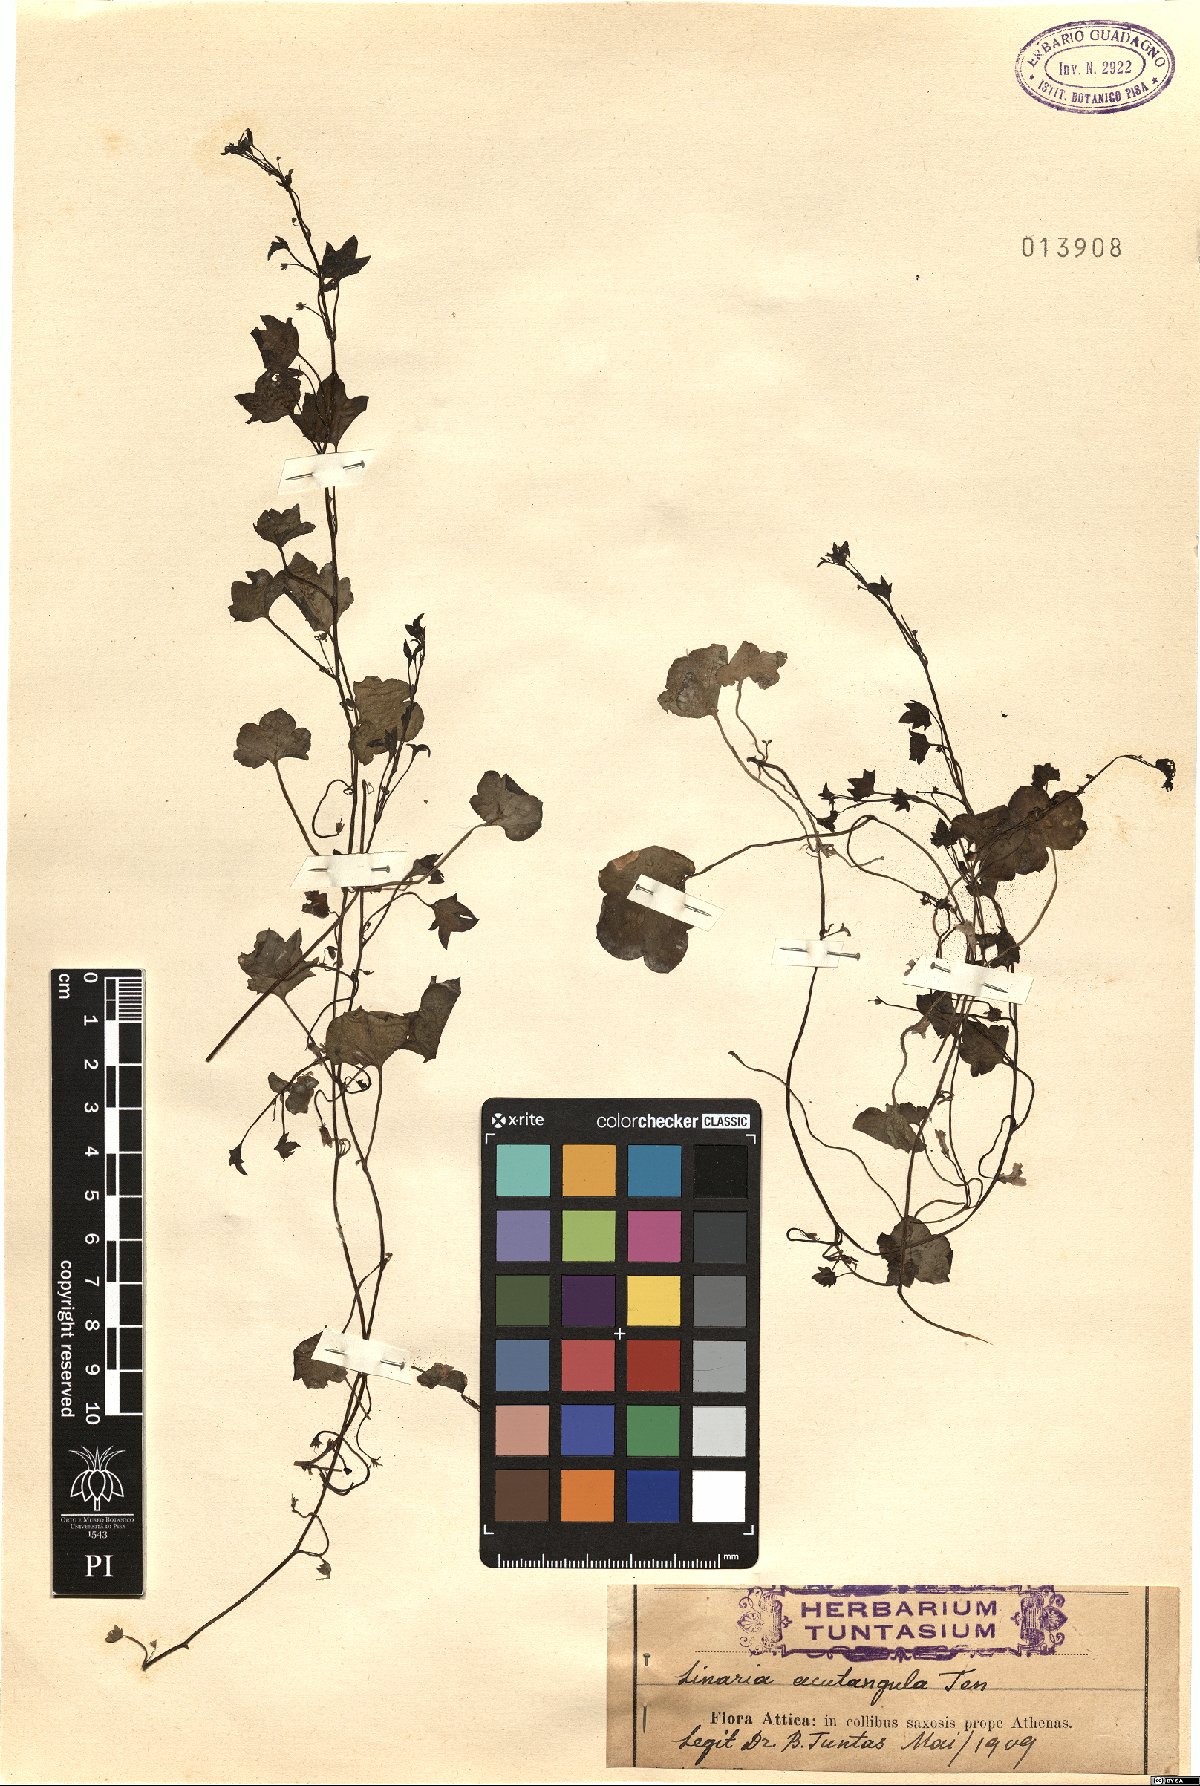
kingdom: Plantae
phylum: Tracheophyta
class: Magnoliopsida
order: Lamiales
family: Plantaginaceae
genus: Cymbalaria
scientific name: Cymbalaria muralis
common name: Ivy-leaved toadflax
